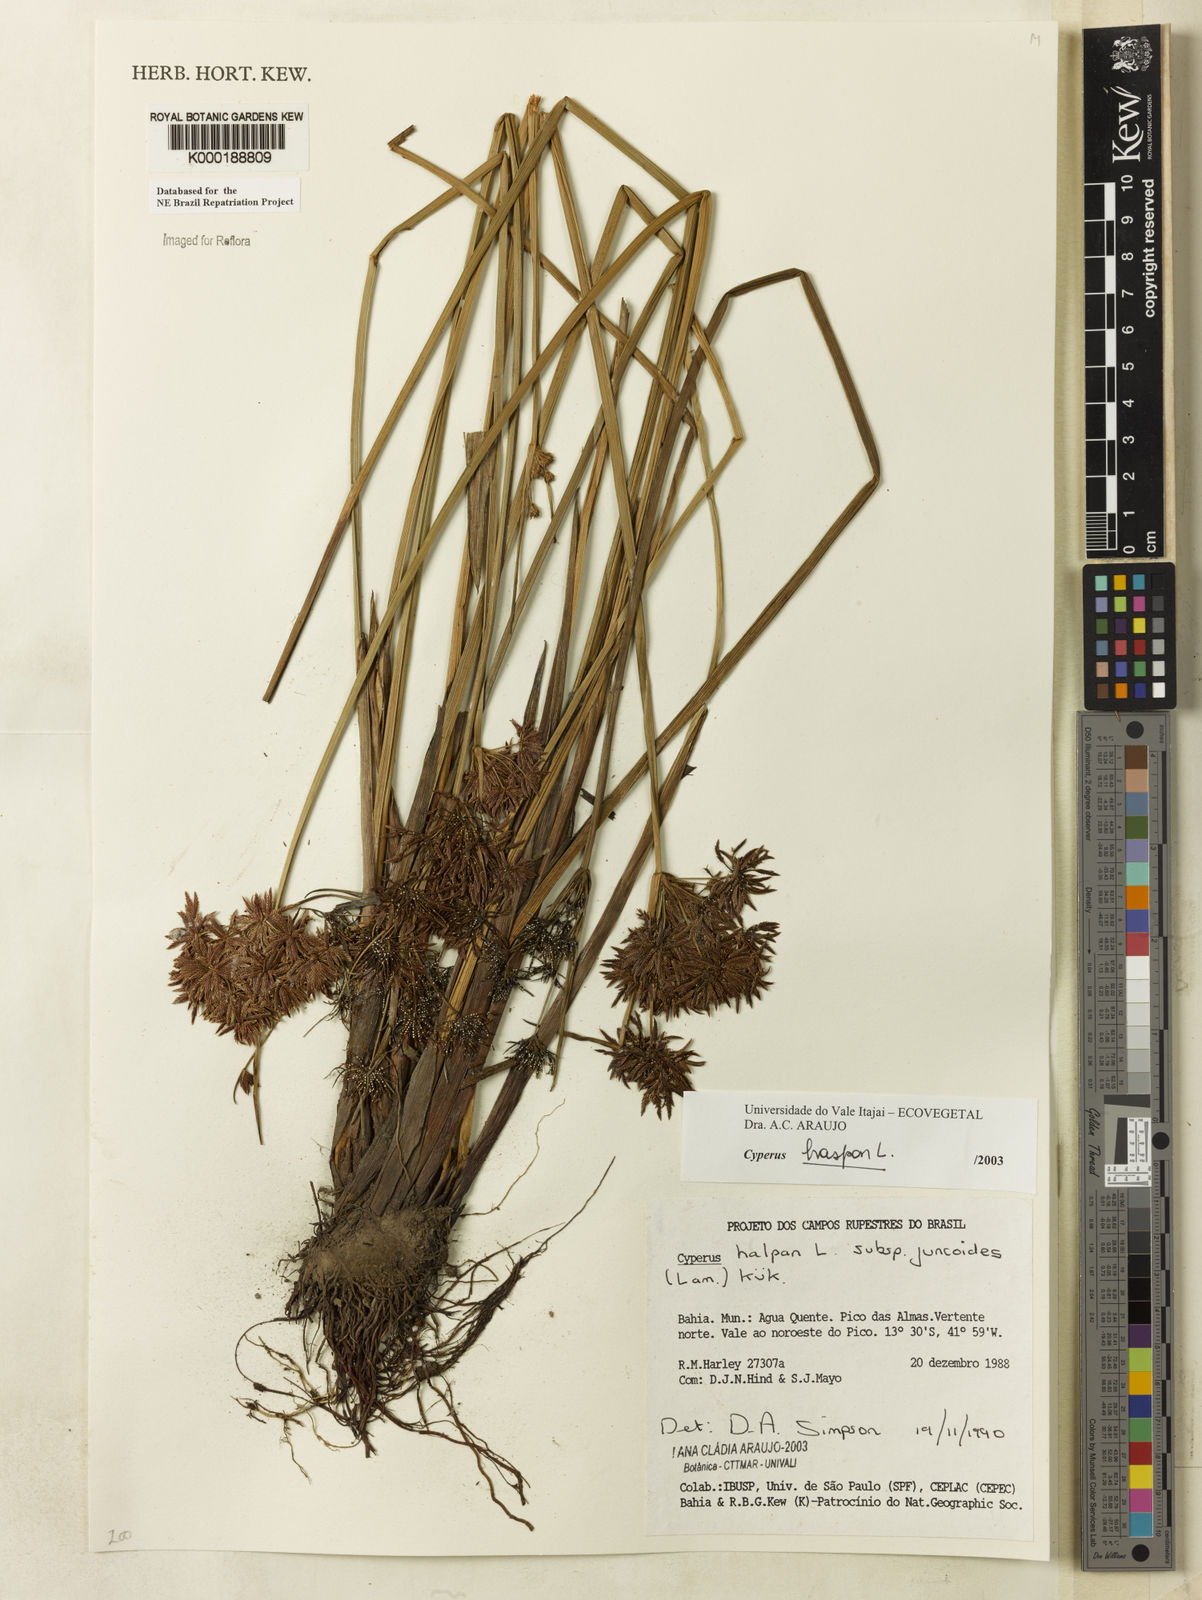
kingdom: Plantae
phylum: Tracheophyta
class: Liliopsida
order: Poales
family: Cyperaceae
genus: Cyperus
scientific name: Cyperus haspan
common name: Haspan flatsedge
